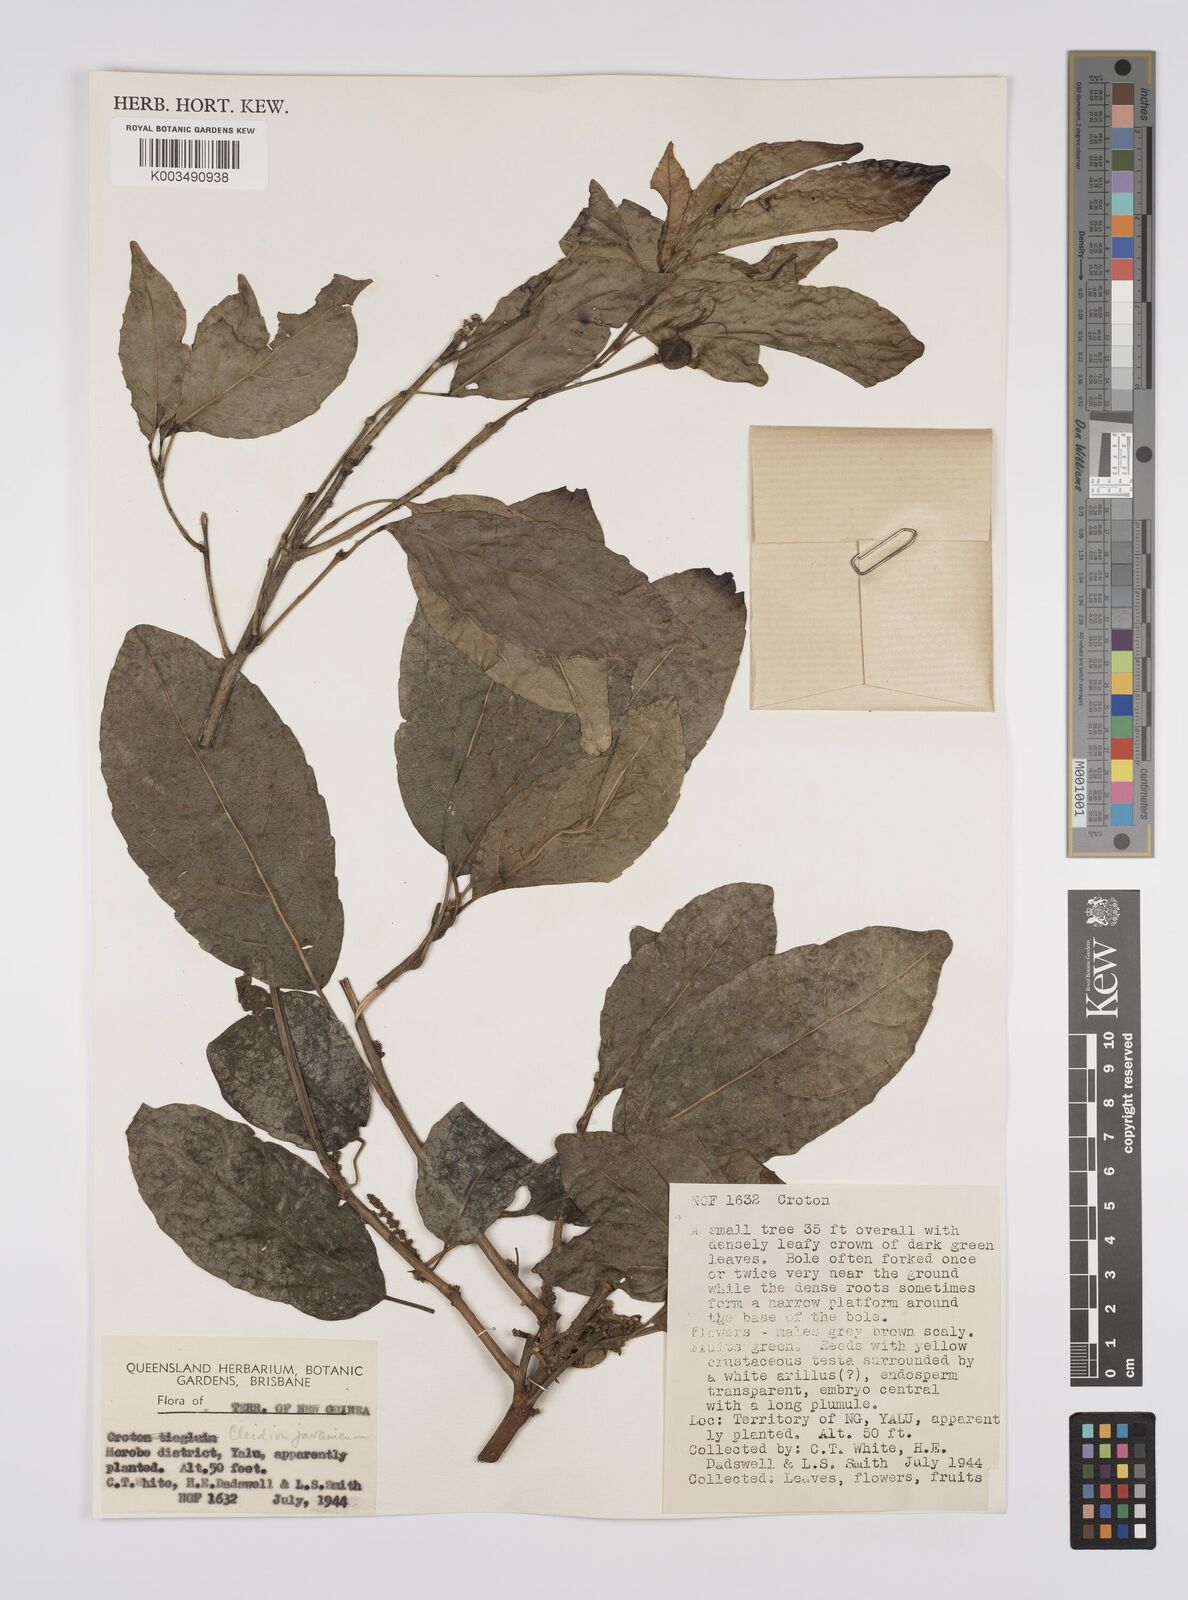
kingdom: Plantae
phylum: Tracheophyta
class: Magnoliopsida
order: Malpighiales
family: Euphorbiaceae
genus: Cleidion
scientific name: Cleidion javanicum
